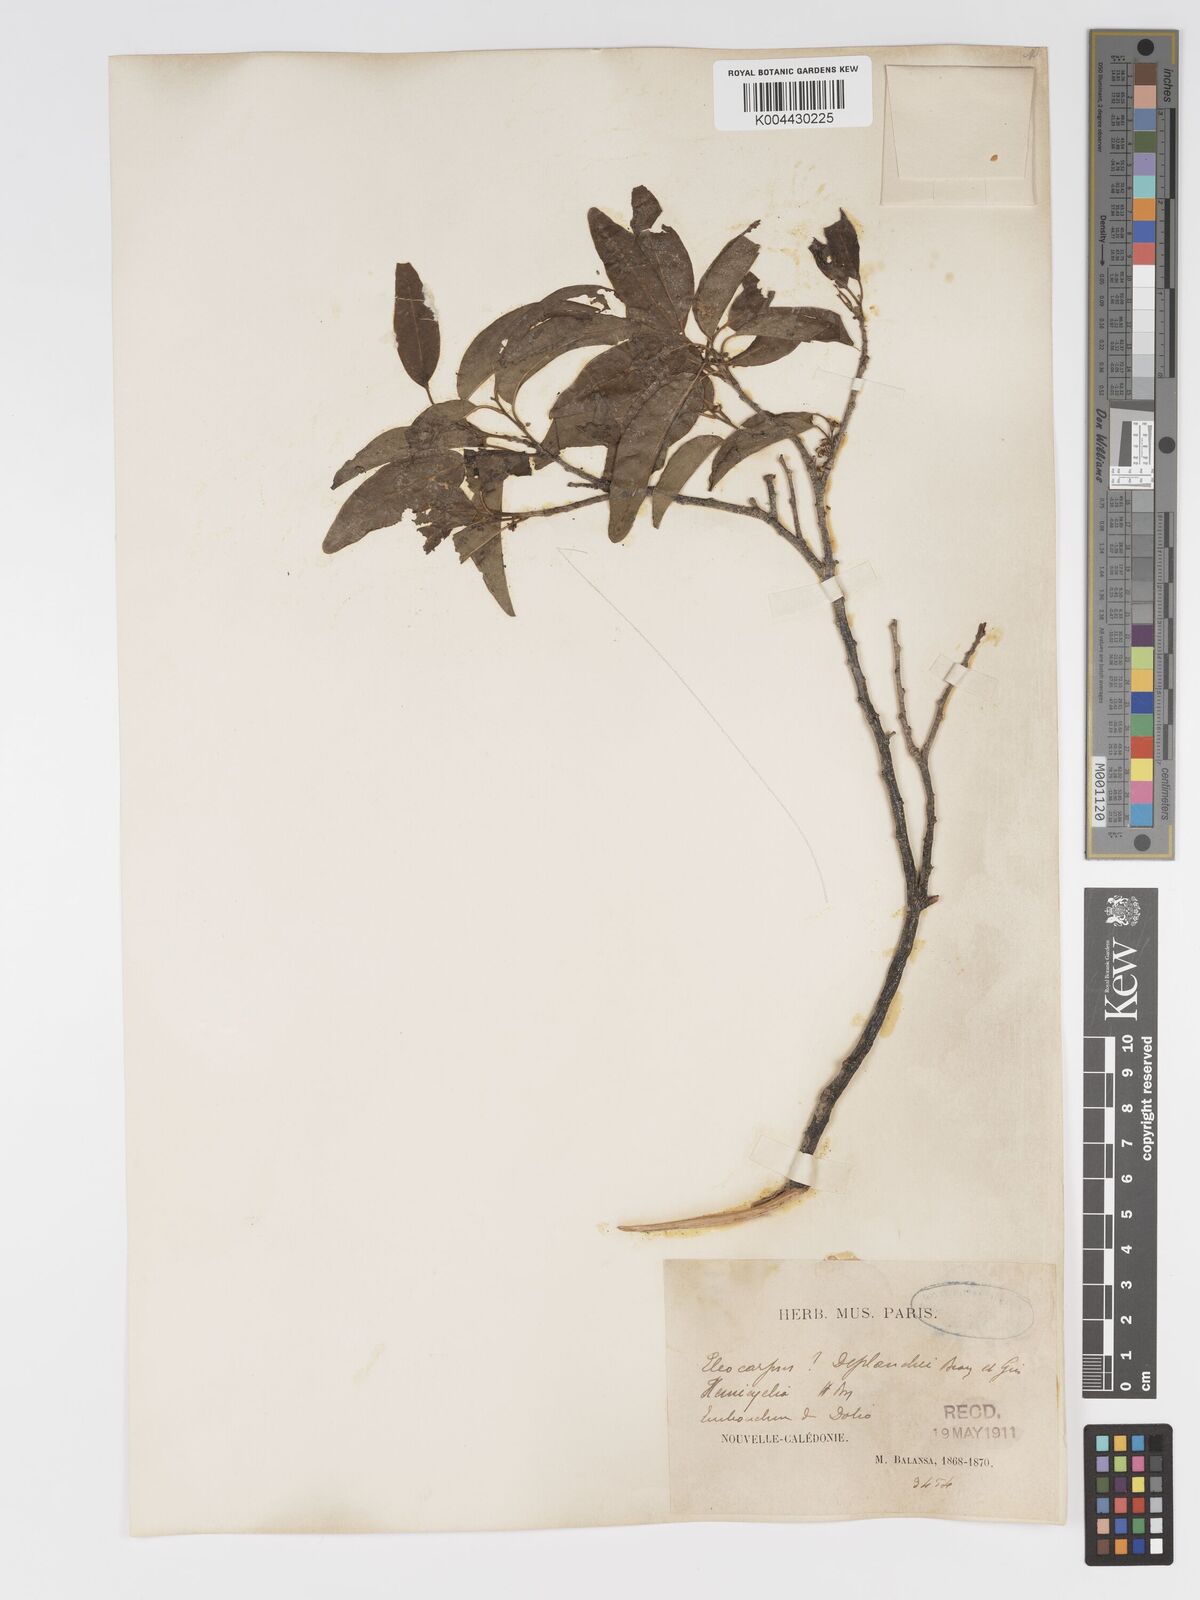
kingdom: Plantae
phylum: Tracheophyta
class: Magnoliopsida
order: Malpighiales
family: Putranjivaceae
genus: Drypetes
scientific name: Drypetes deplanchei
